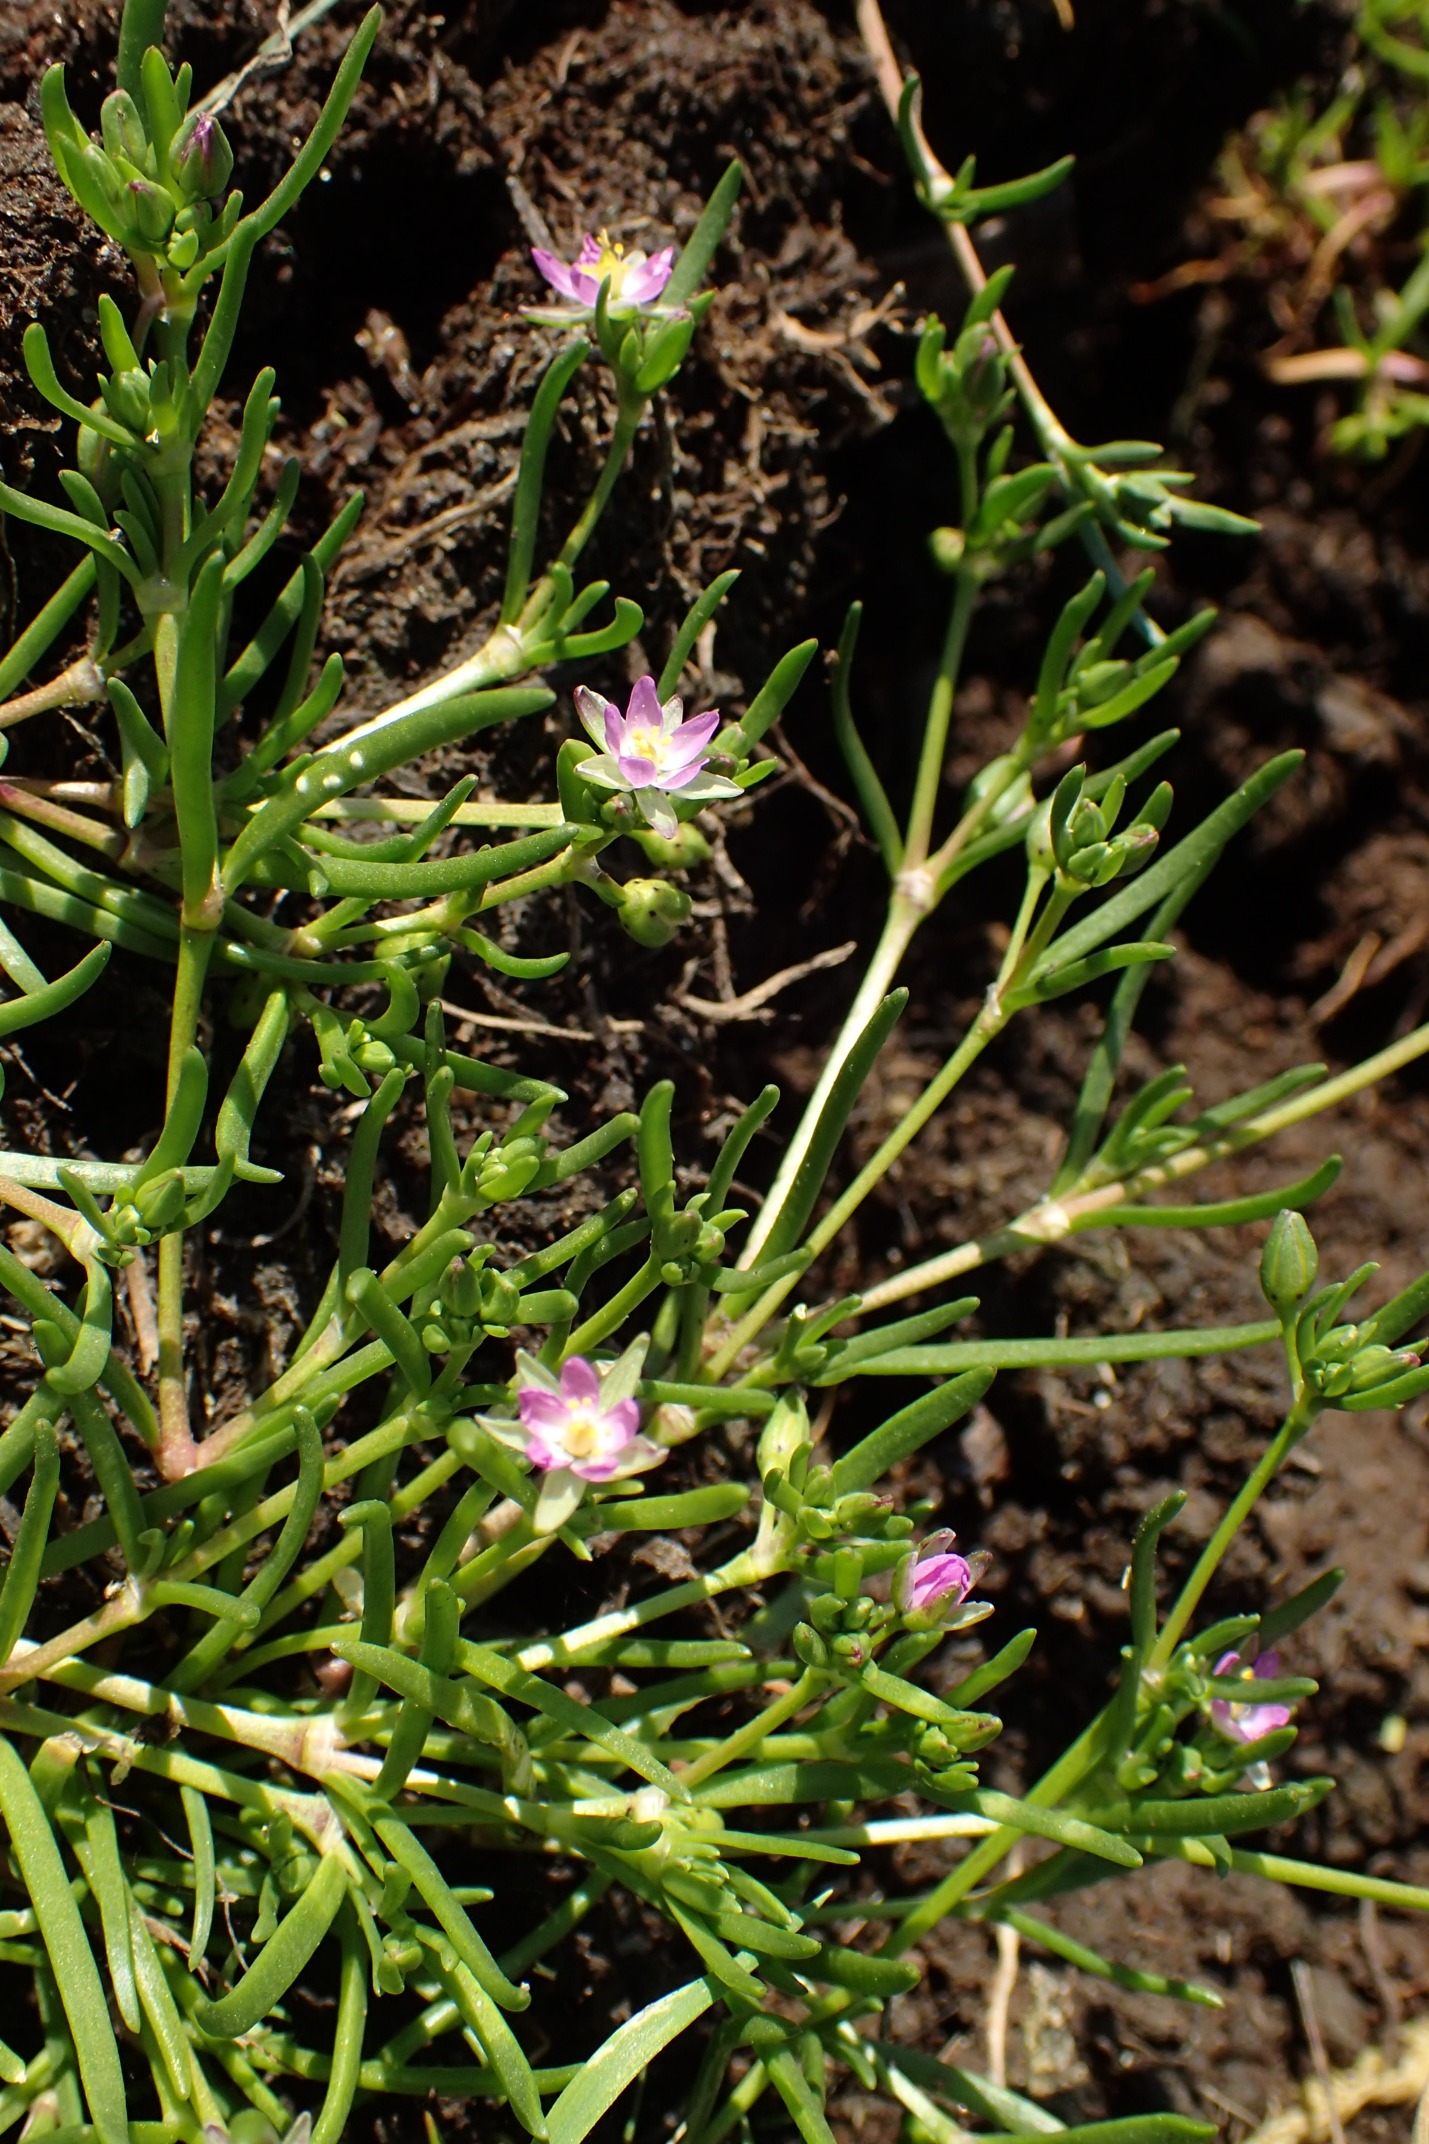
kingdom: Plantae
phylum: Tracheophyta
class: Magnoliopsida
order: Caryophyllales
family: Caryophyllaceae
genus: Spergularia
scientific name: Spergularia marina
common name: Kødet hindeknæ
